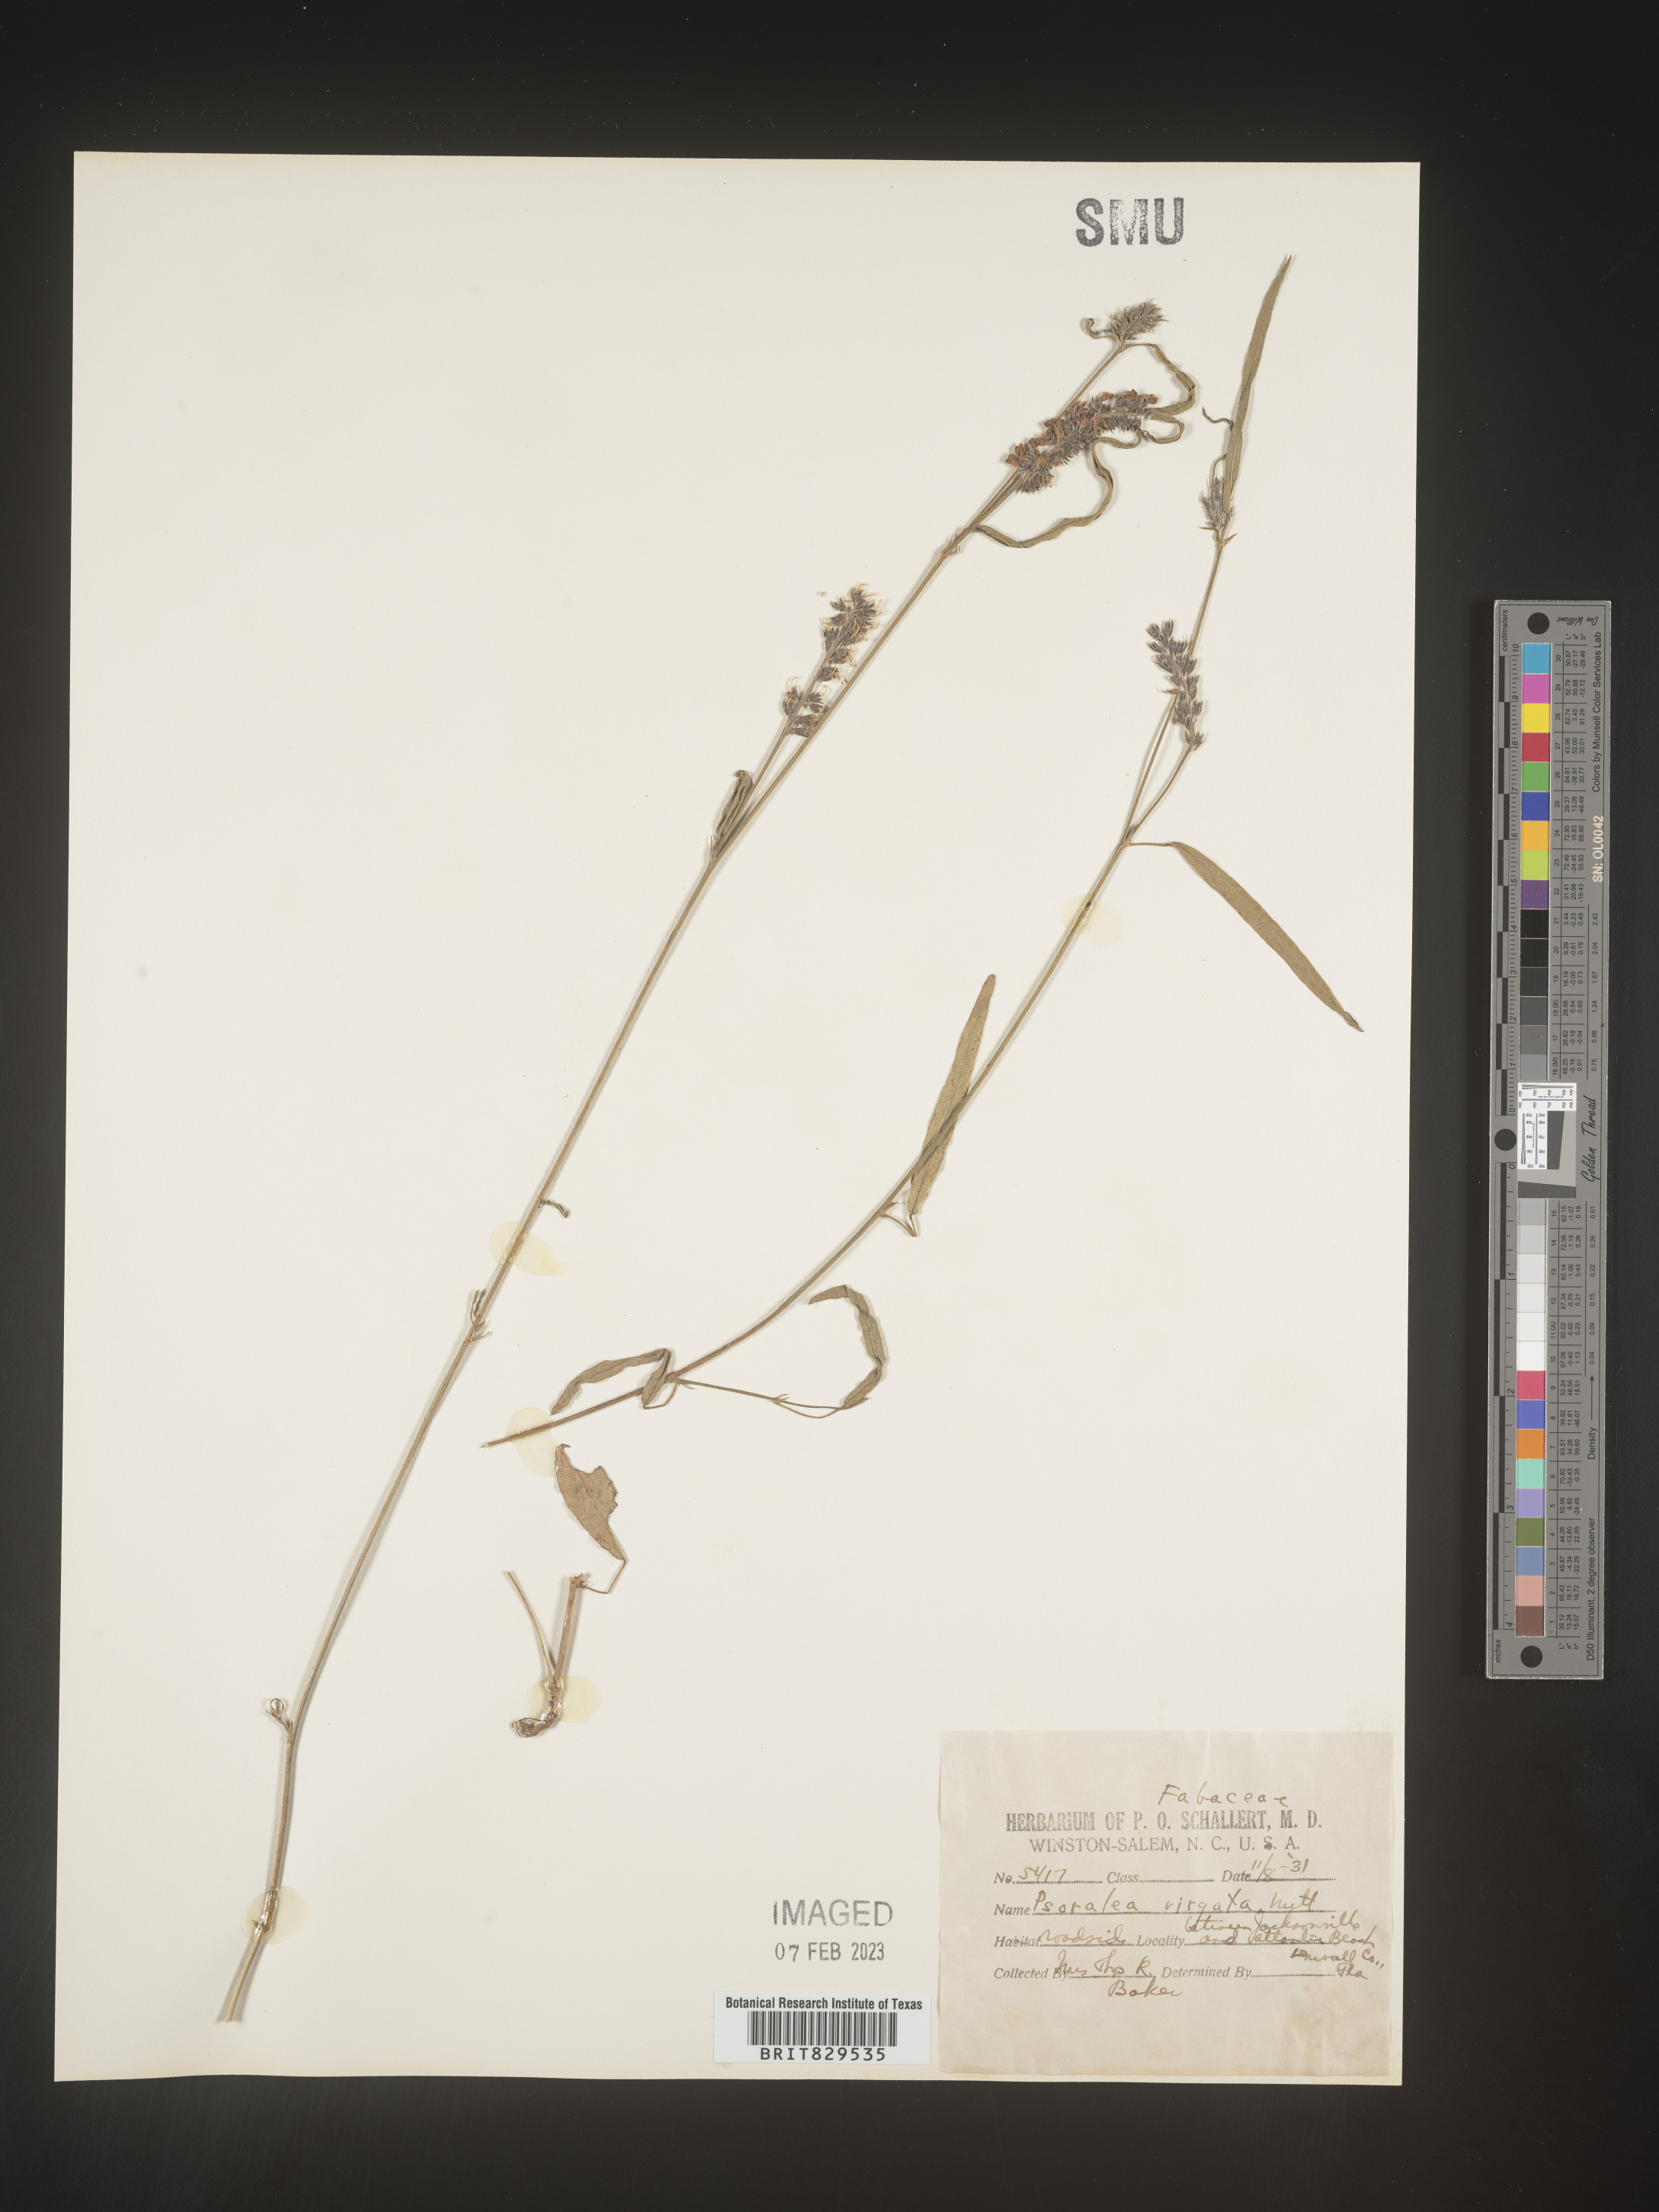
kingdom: Plantae
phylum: Tracheophyta
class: Magnoliopsida
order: Fabales
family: Fabaceae
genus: Psoralea
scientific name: Psoralea
